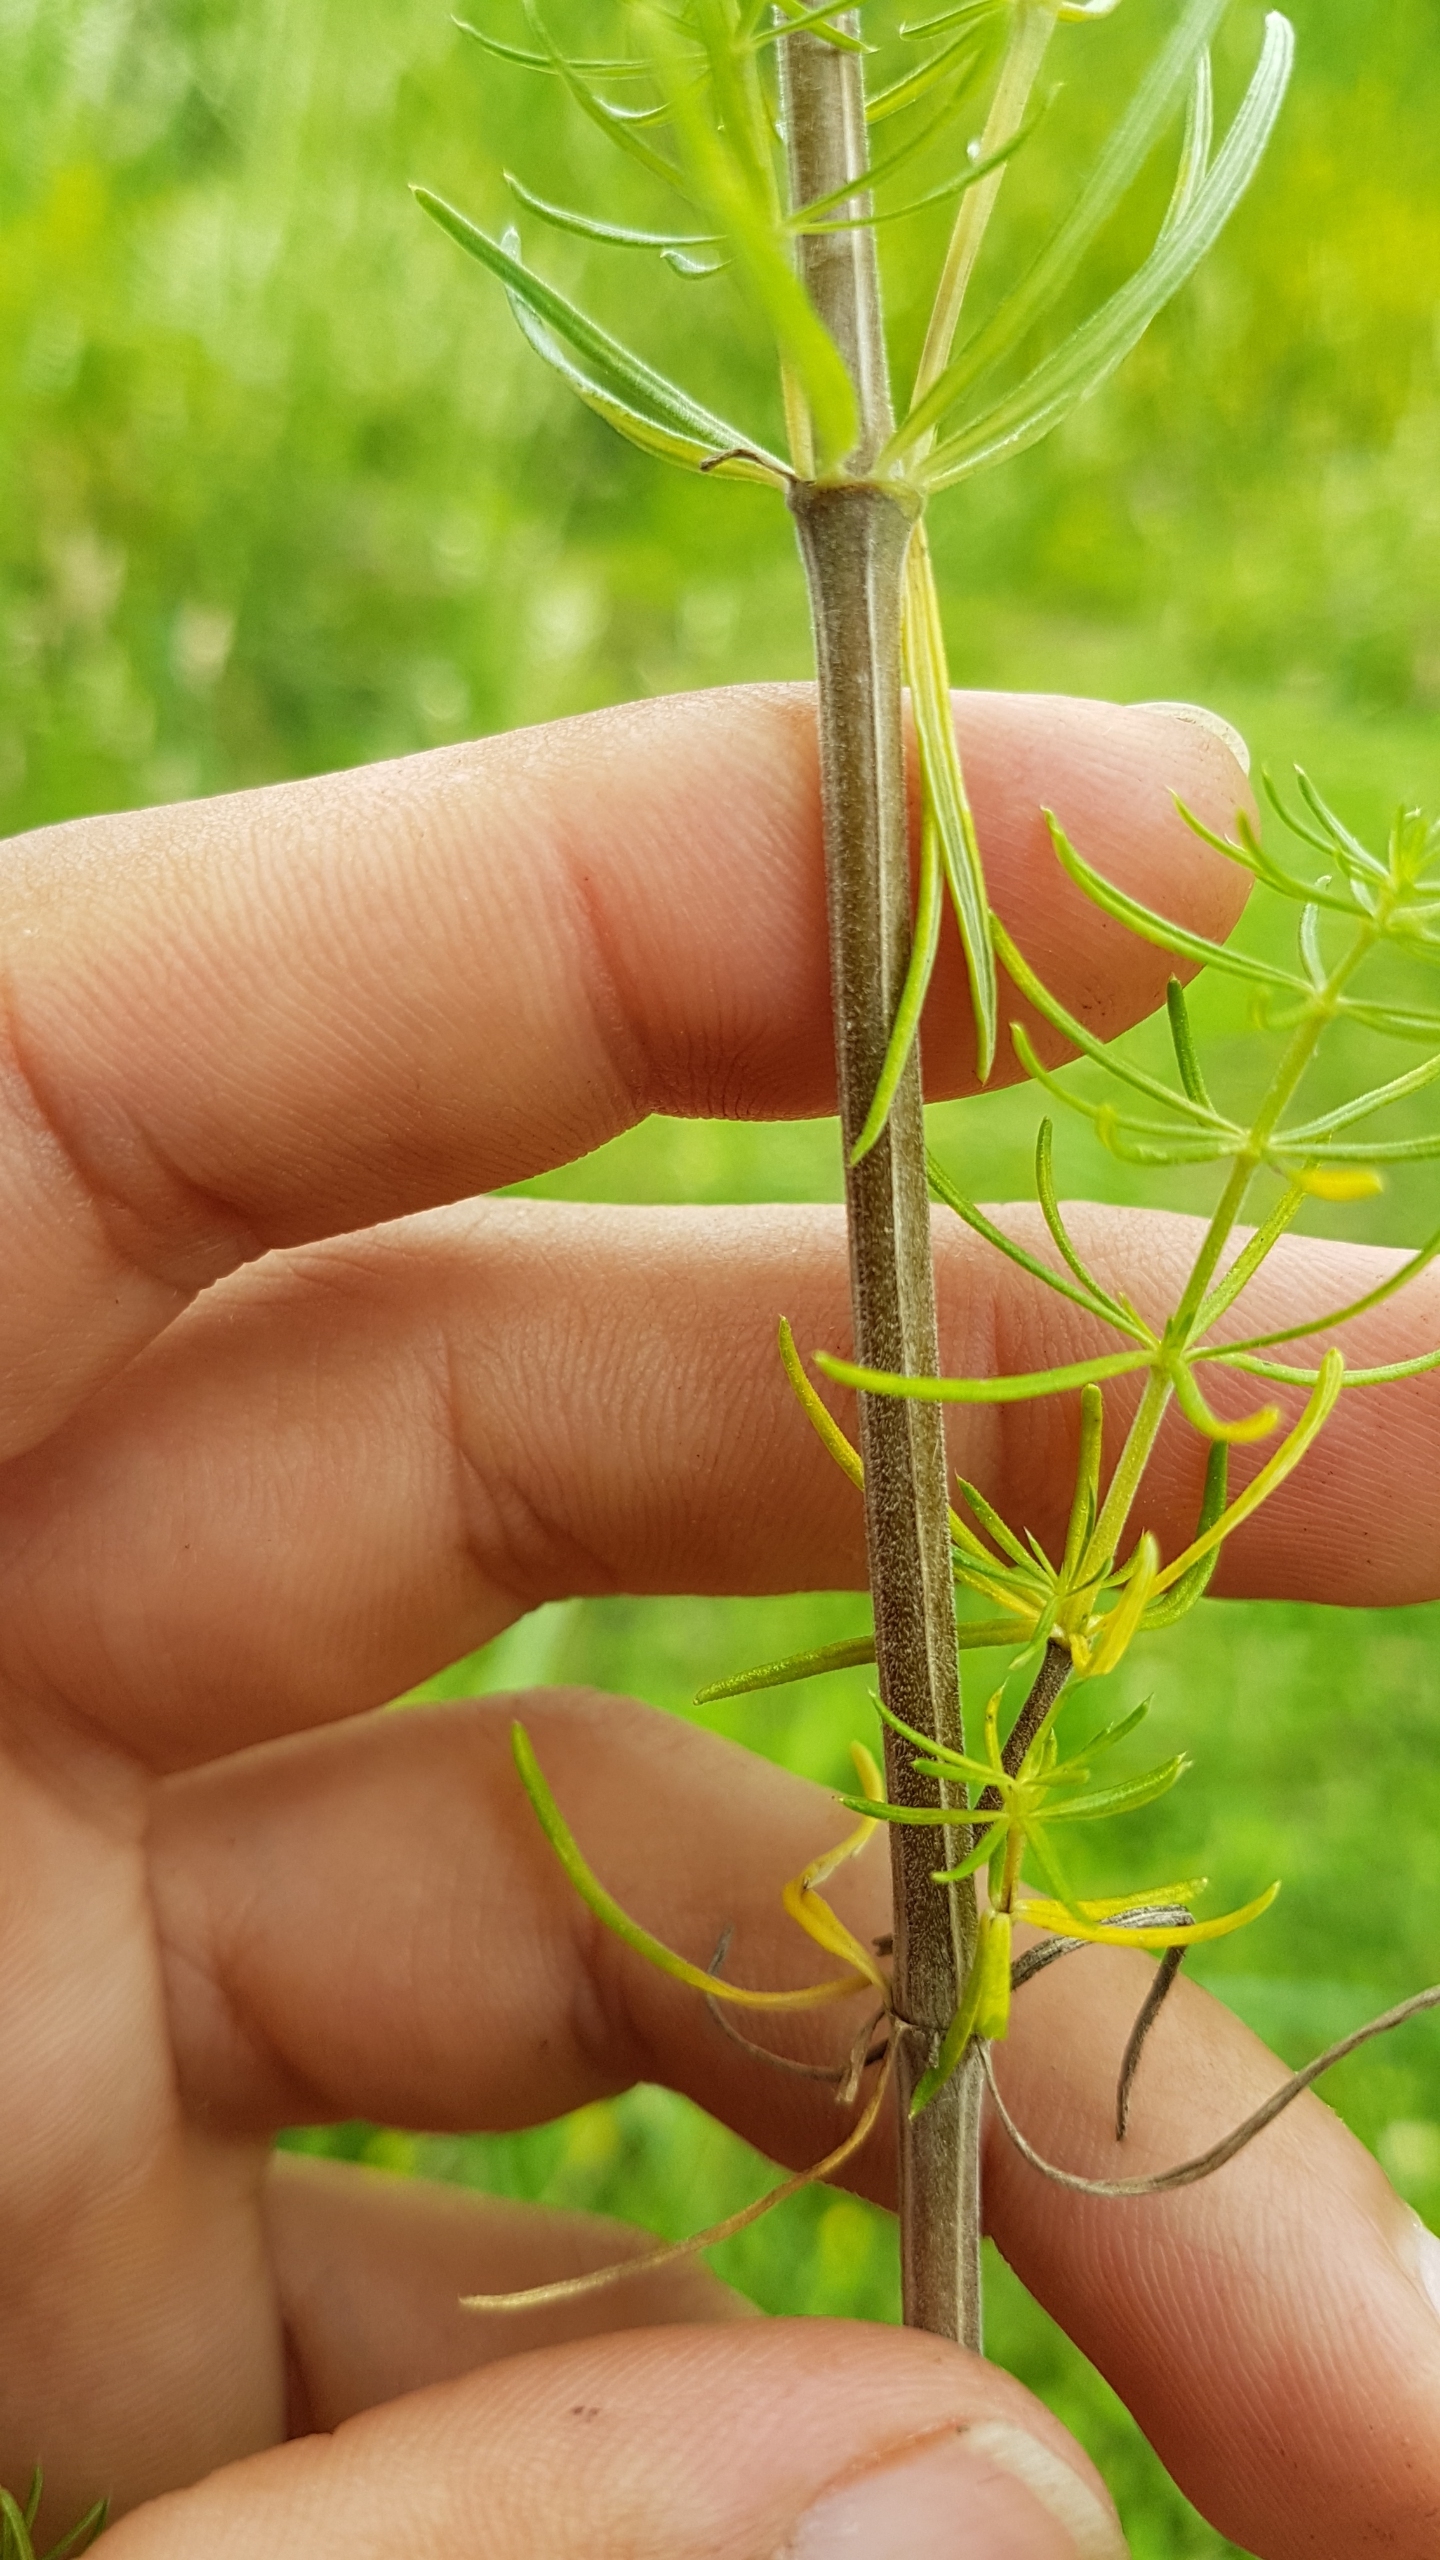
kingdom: Plantae
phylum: Tracheophyta
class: Magnoliopsida
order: Gentianales
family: Rubiaceae
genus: Galium
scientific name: Galium verum
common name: Gul snerre
